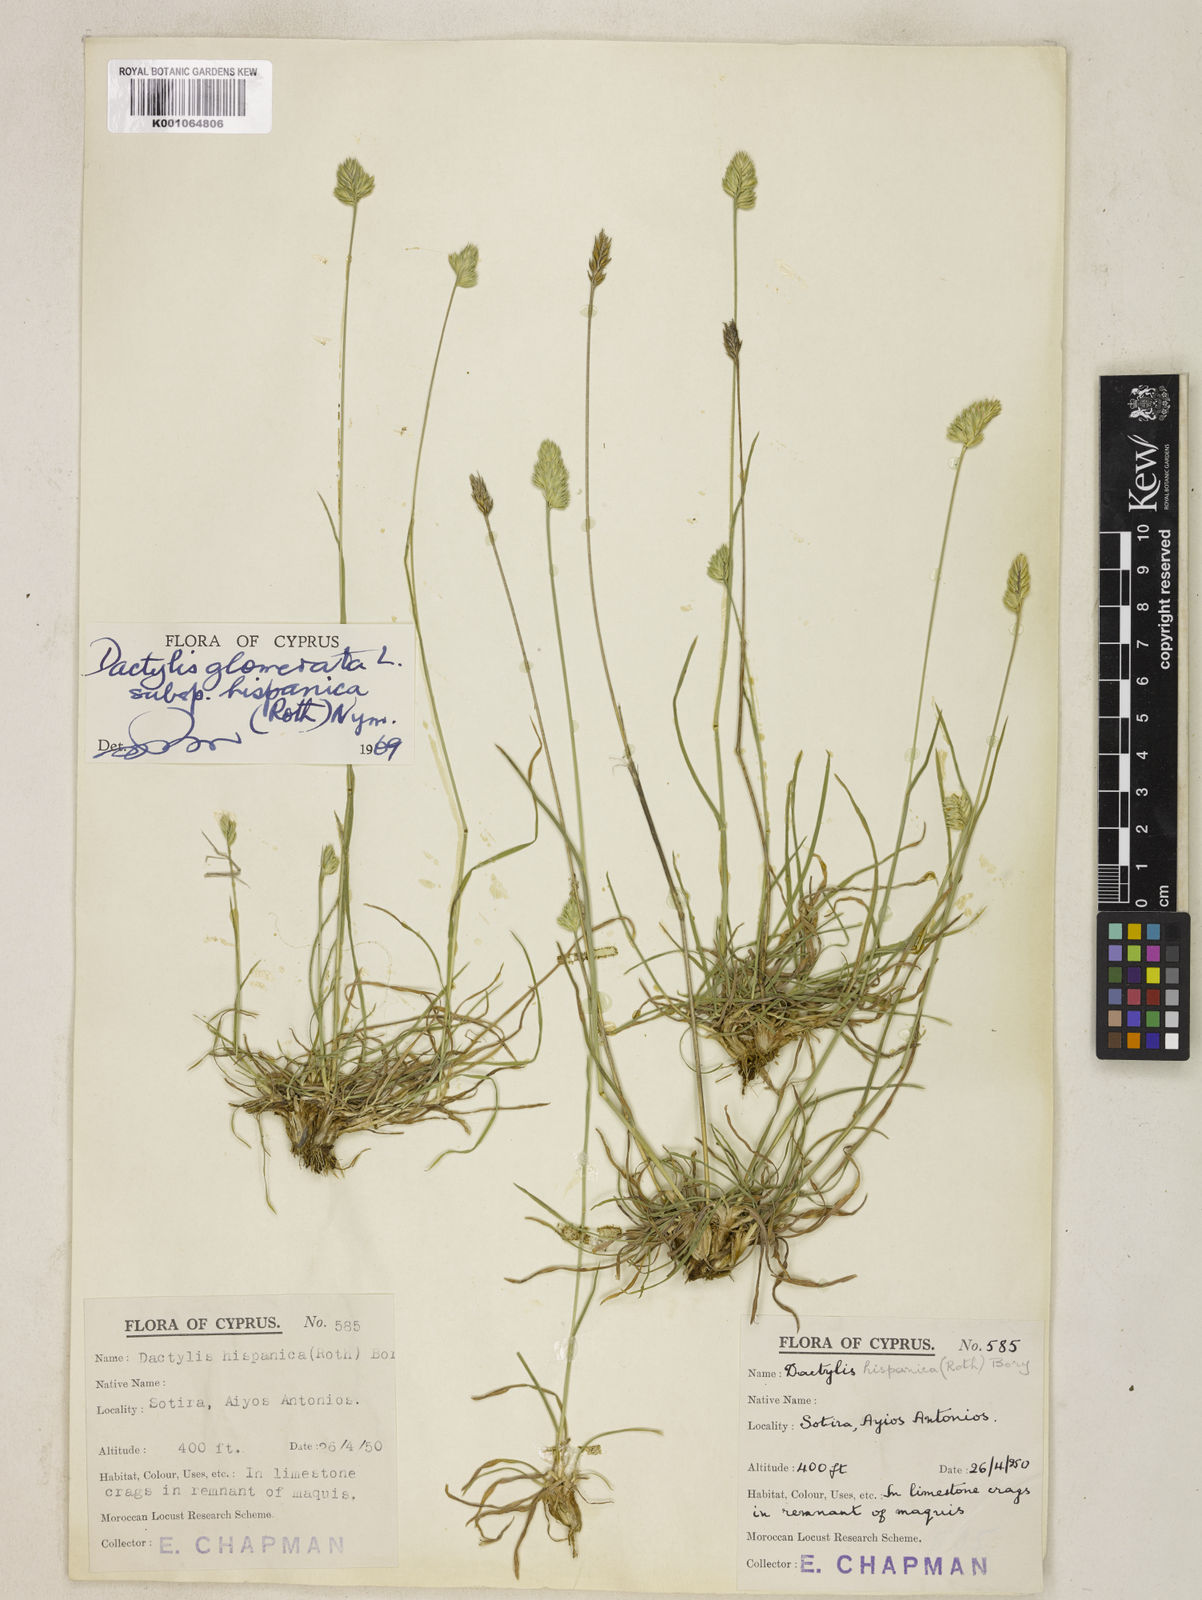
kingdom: Plantae
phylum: Tracheophyta
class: Liliopsida
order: Poales
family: Poaceae
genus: Dactylis
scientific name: Dactylis glomerata
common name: Orchardgrass
